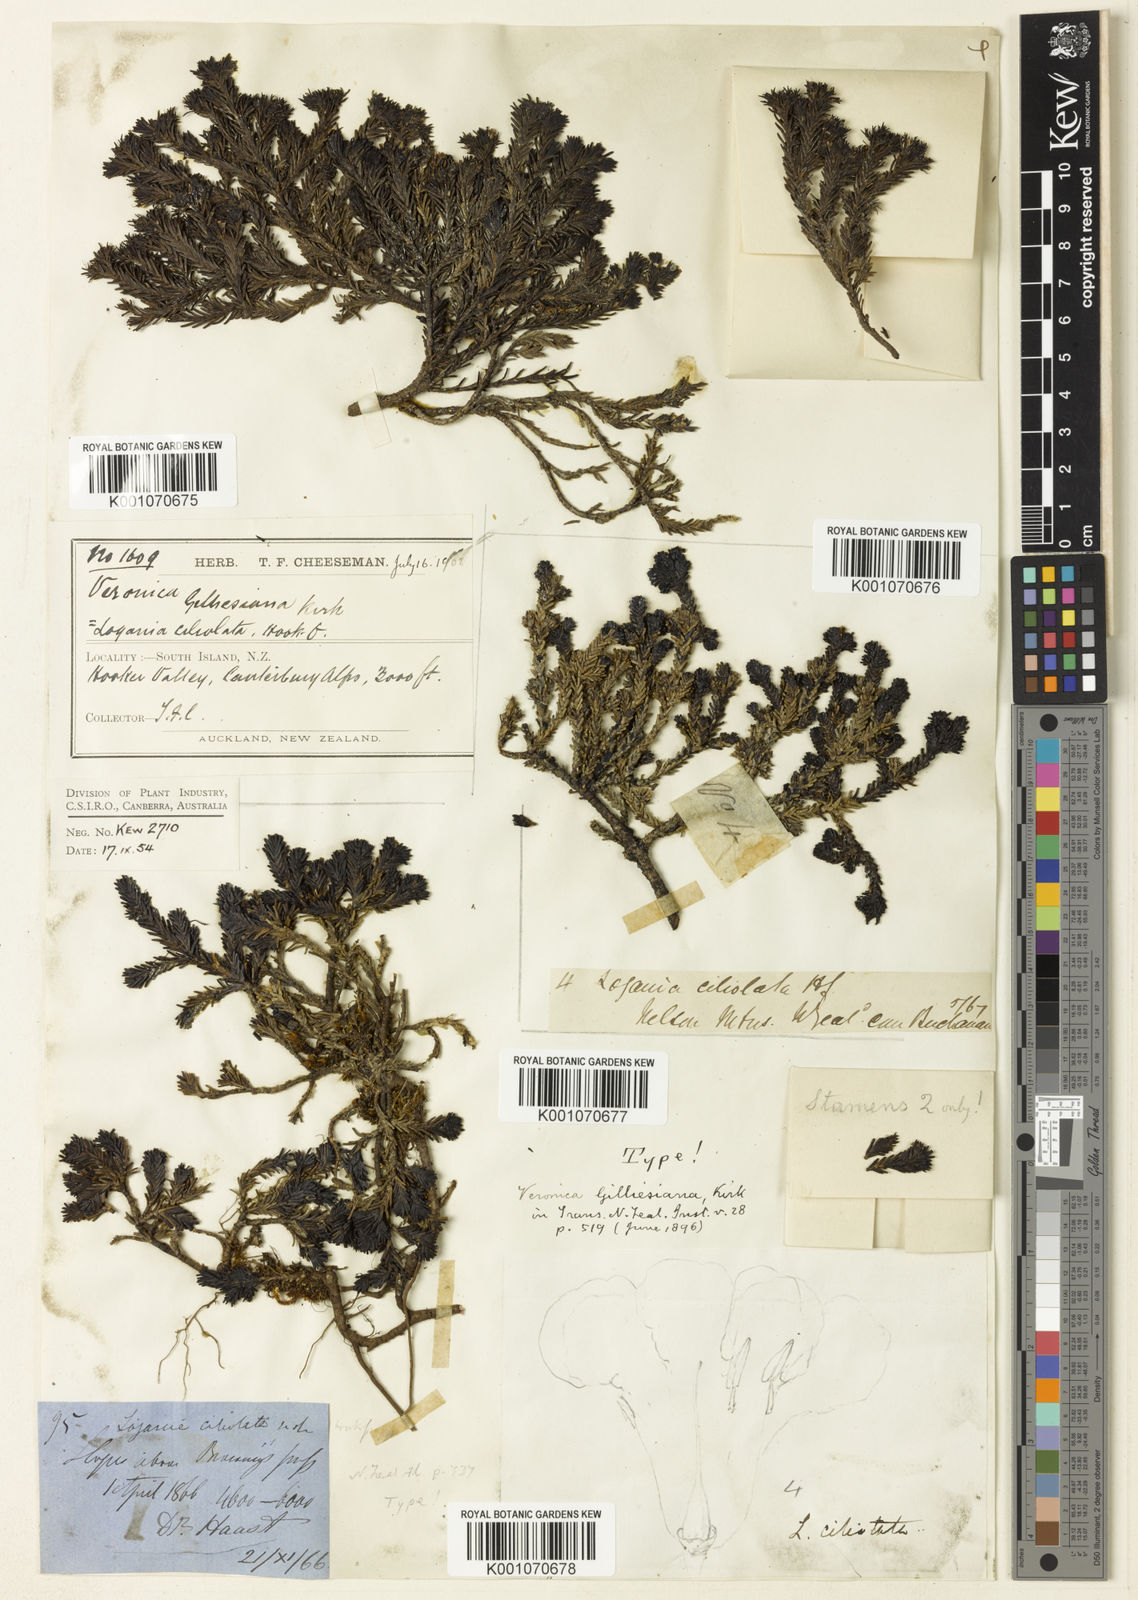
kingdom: Plantae
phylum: Tracheophyta
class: Magnoliopsida
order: Lamiales
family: Plantaginaceae
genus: Veronica
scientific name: Veronica ciliolata
